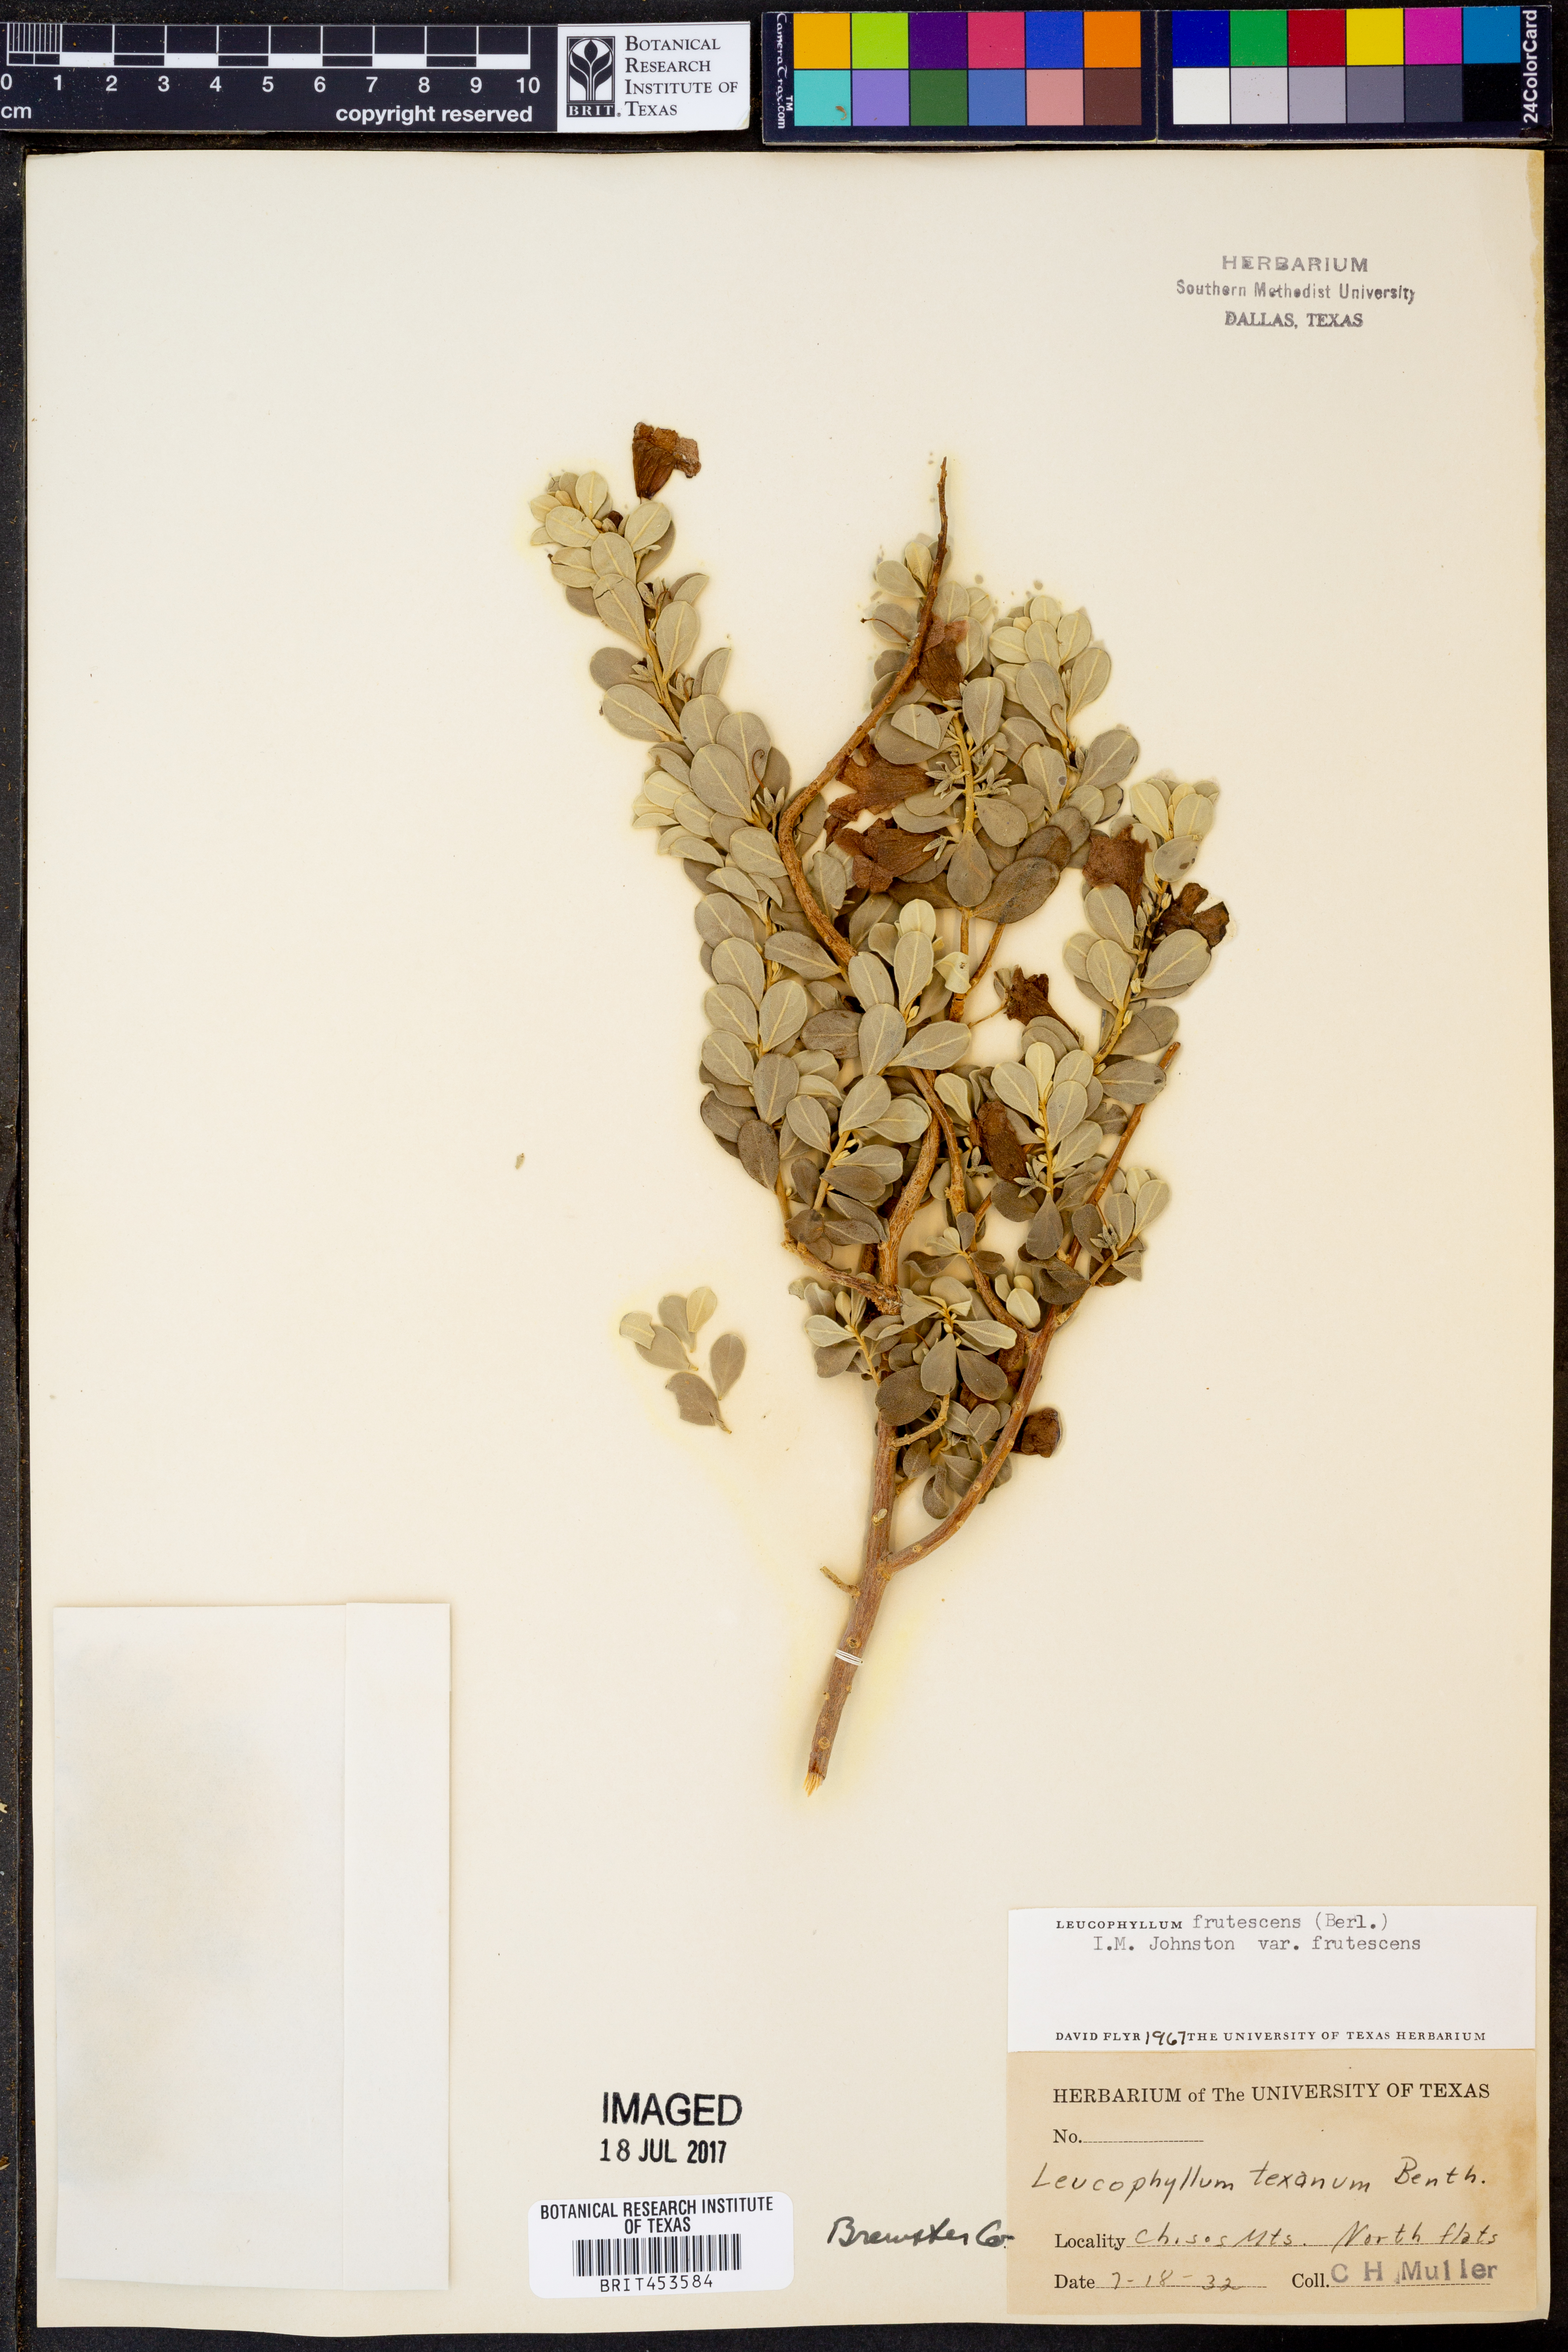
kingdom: Plantae
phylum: Tracheophyta
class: Magnoliopsida
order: Lamiales
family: Scrophulariaceae
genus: Leucophyllum
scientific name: Leucophyllum frutescens
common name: Texas silverleaf
